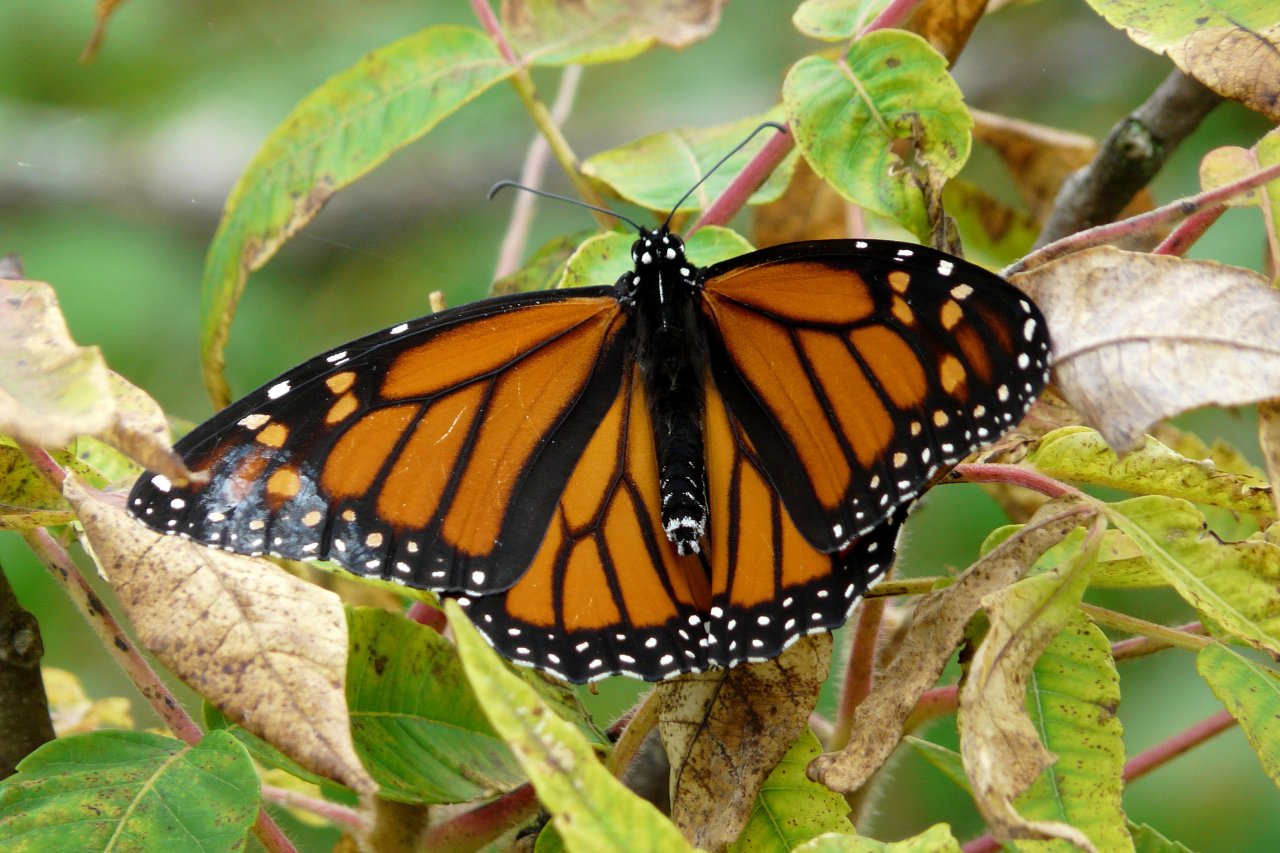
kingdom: Animalia
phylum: Arthropoda
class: Insecta
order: Lepidoptera
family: Nymphalidae
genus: Danaus
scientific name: Danaus plexippus
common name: Monarch
